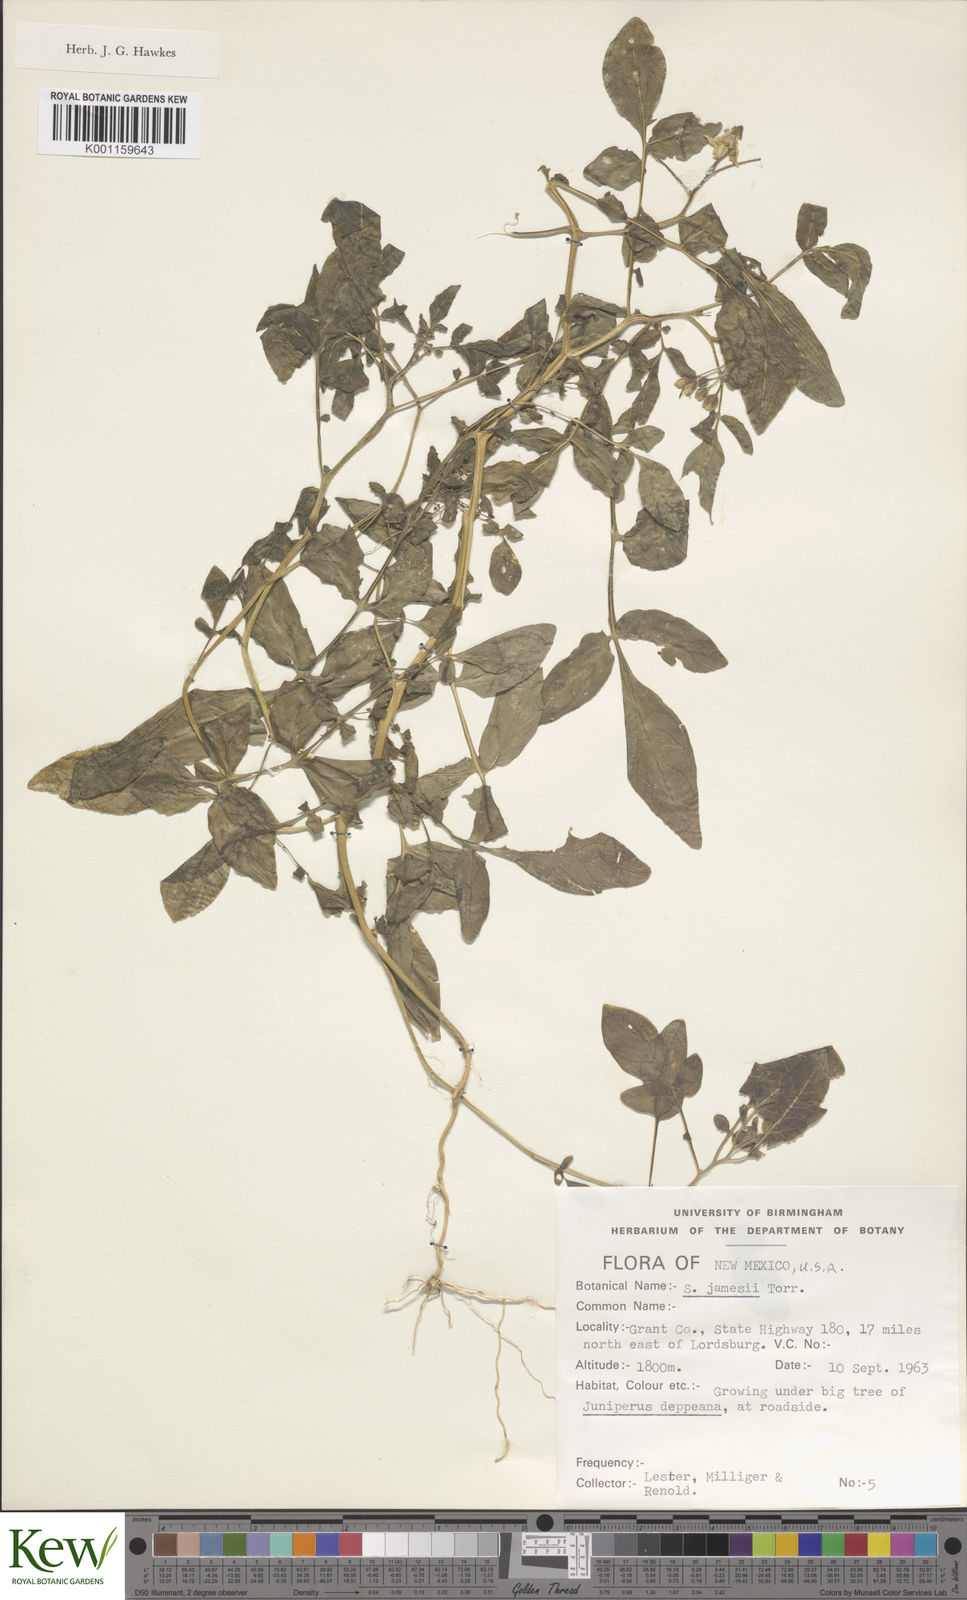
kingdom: Plantae
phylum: Tracheophyta
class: Magnoliopsida
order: Solanales
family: Solanaceae
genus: Solanum
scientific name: Solanum jamesii
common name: Wild potato
